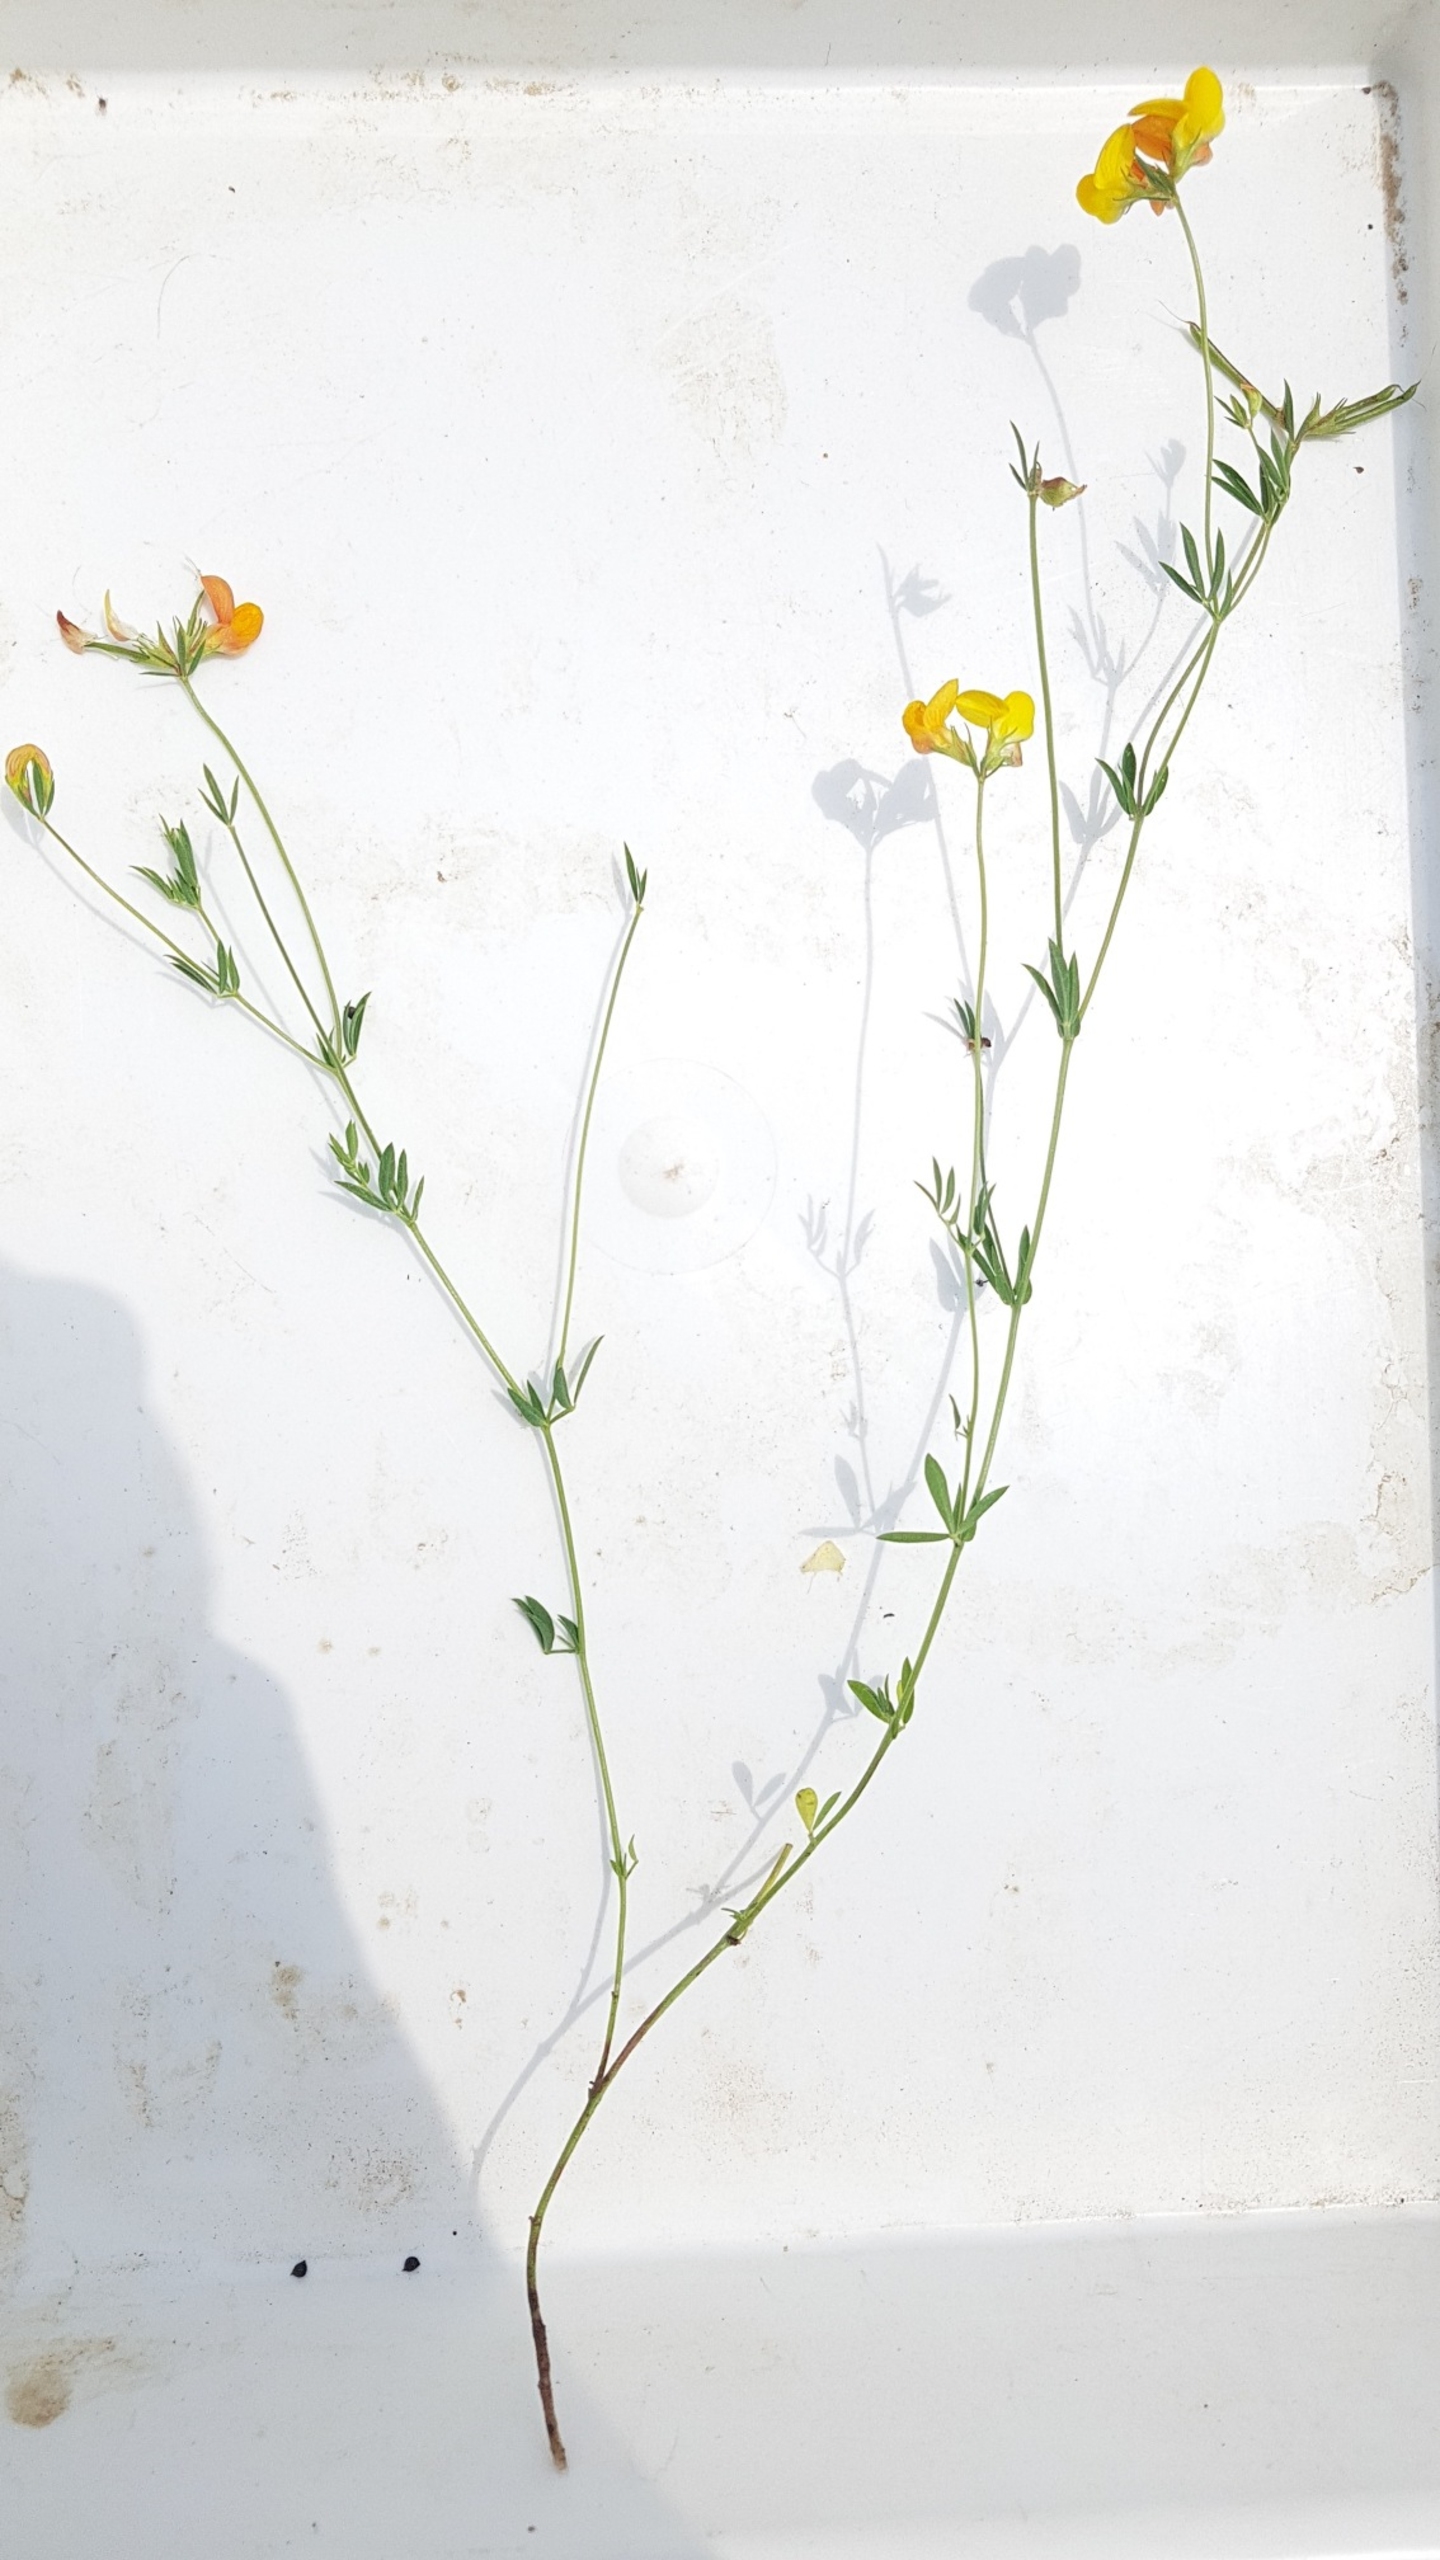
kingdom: Plantae
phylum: Tracheophyta
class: Magnoliopsida
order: Fabales
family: Fabaceae
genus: Lotus
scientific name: Lotus tenuis
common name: Smalbladet kællingetand
